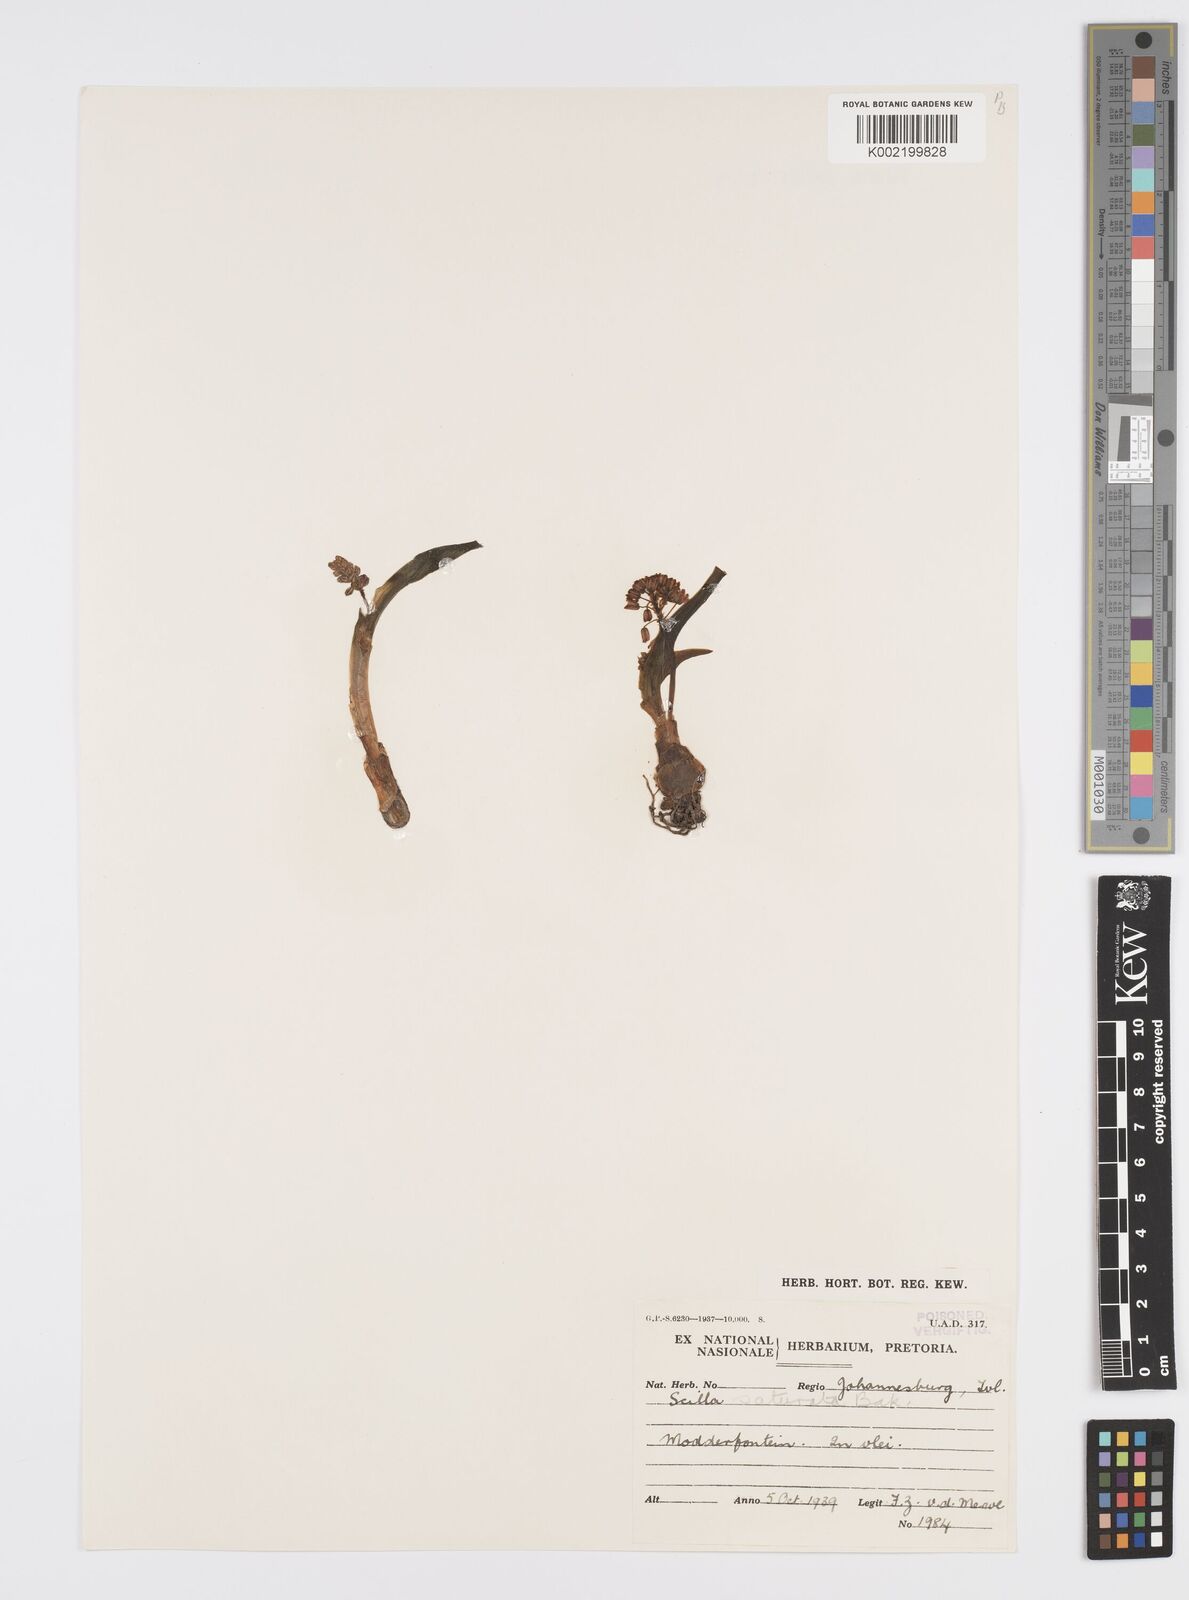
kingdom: Plantae
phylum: Tracheophyta
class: Liliopsida
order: Asparagales
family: Asparagaceae
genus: Ledebouria
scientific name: Ledebouria cooperi
